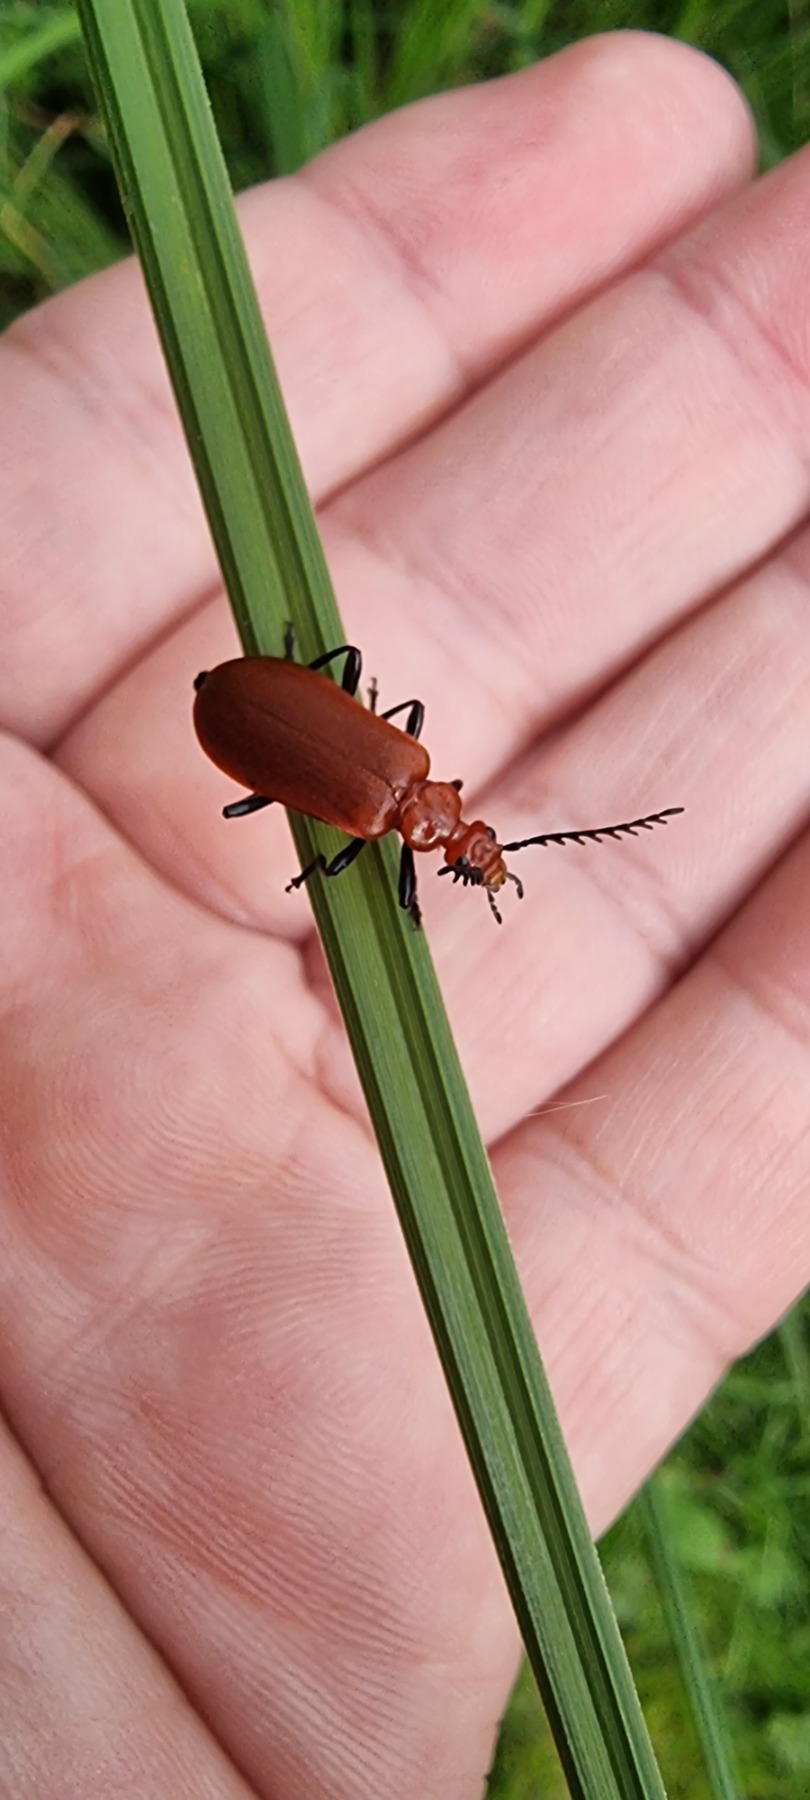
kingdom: Animalia
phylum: Arthropoda
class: Insecta
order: Coleoptera
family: Pyrochroidae
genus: Pyrochroa
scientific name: Pyrochroa serraticornis
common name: Rødhovedet kardinalbille
